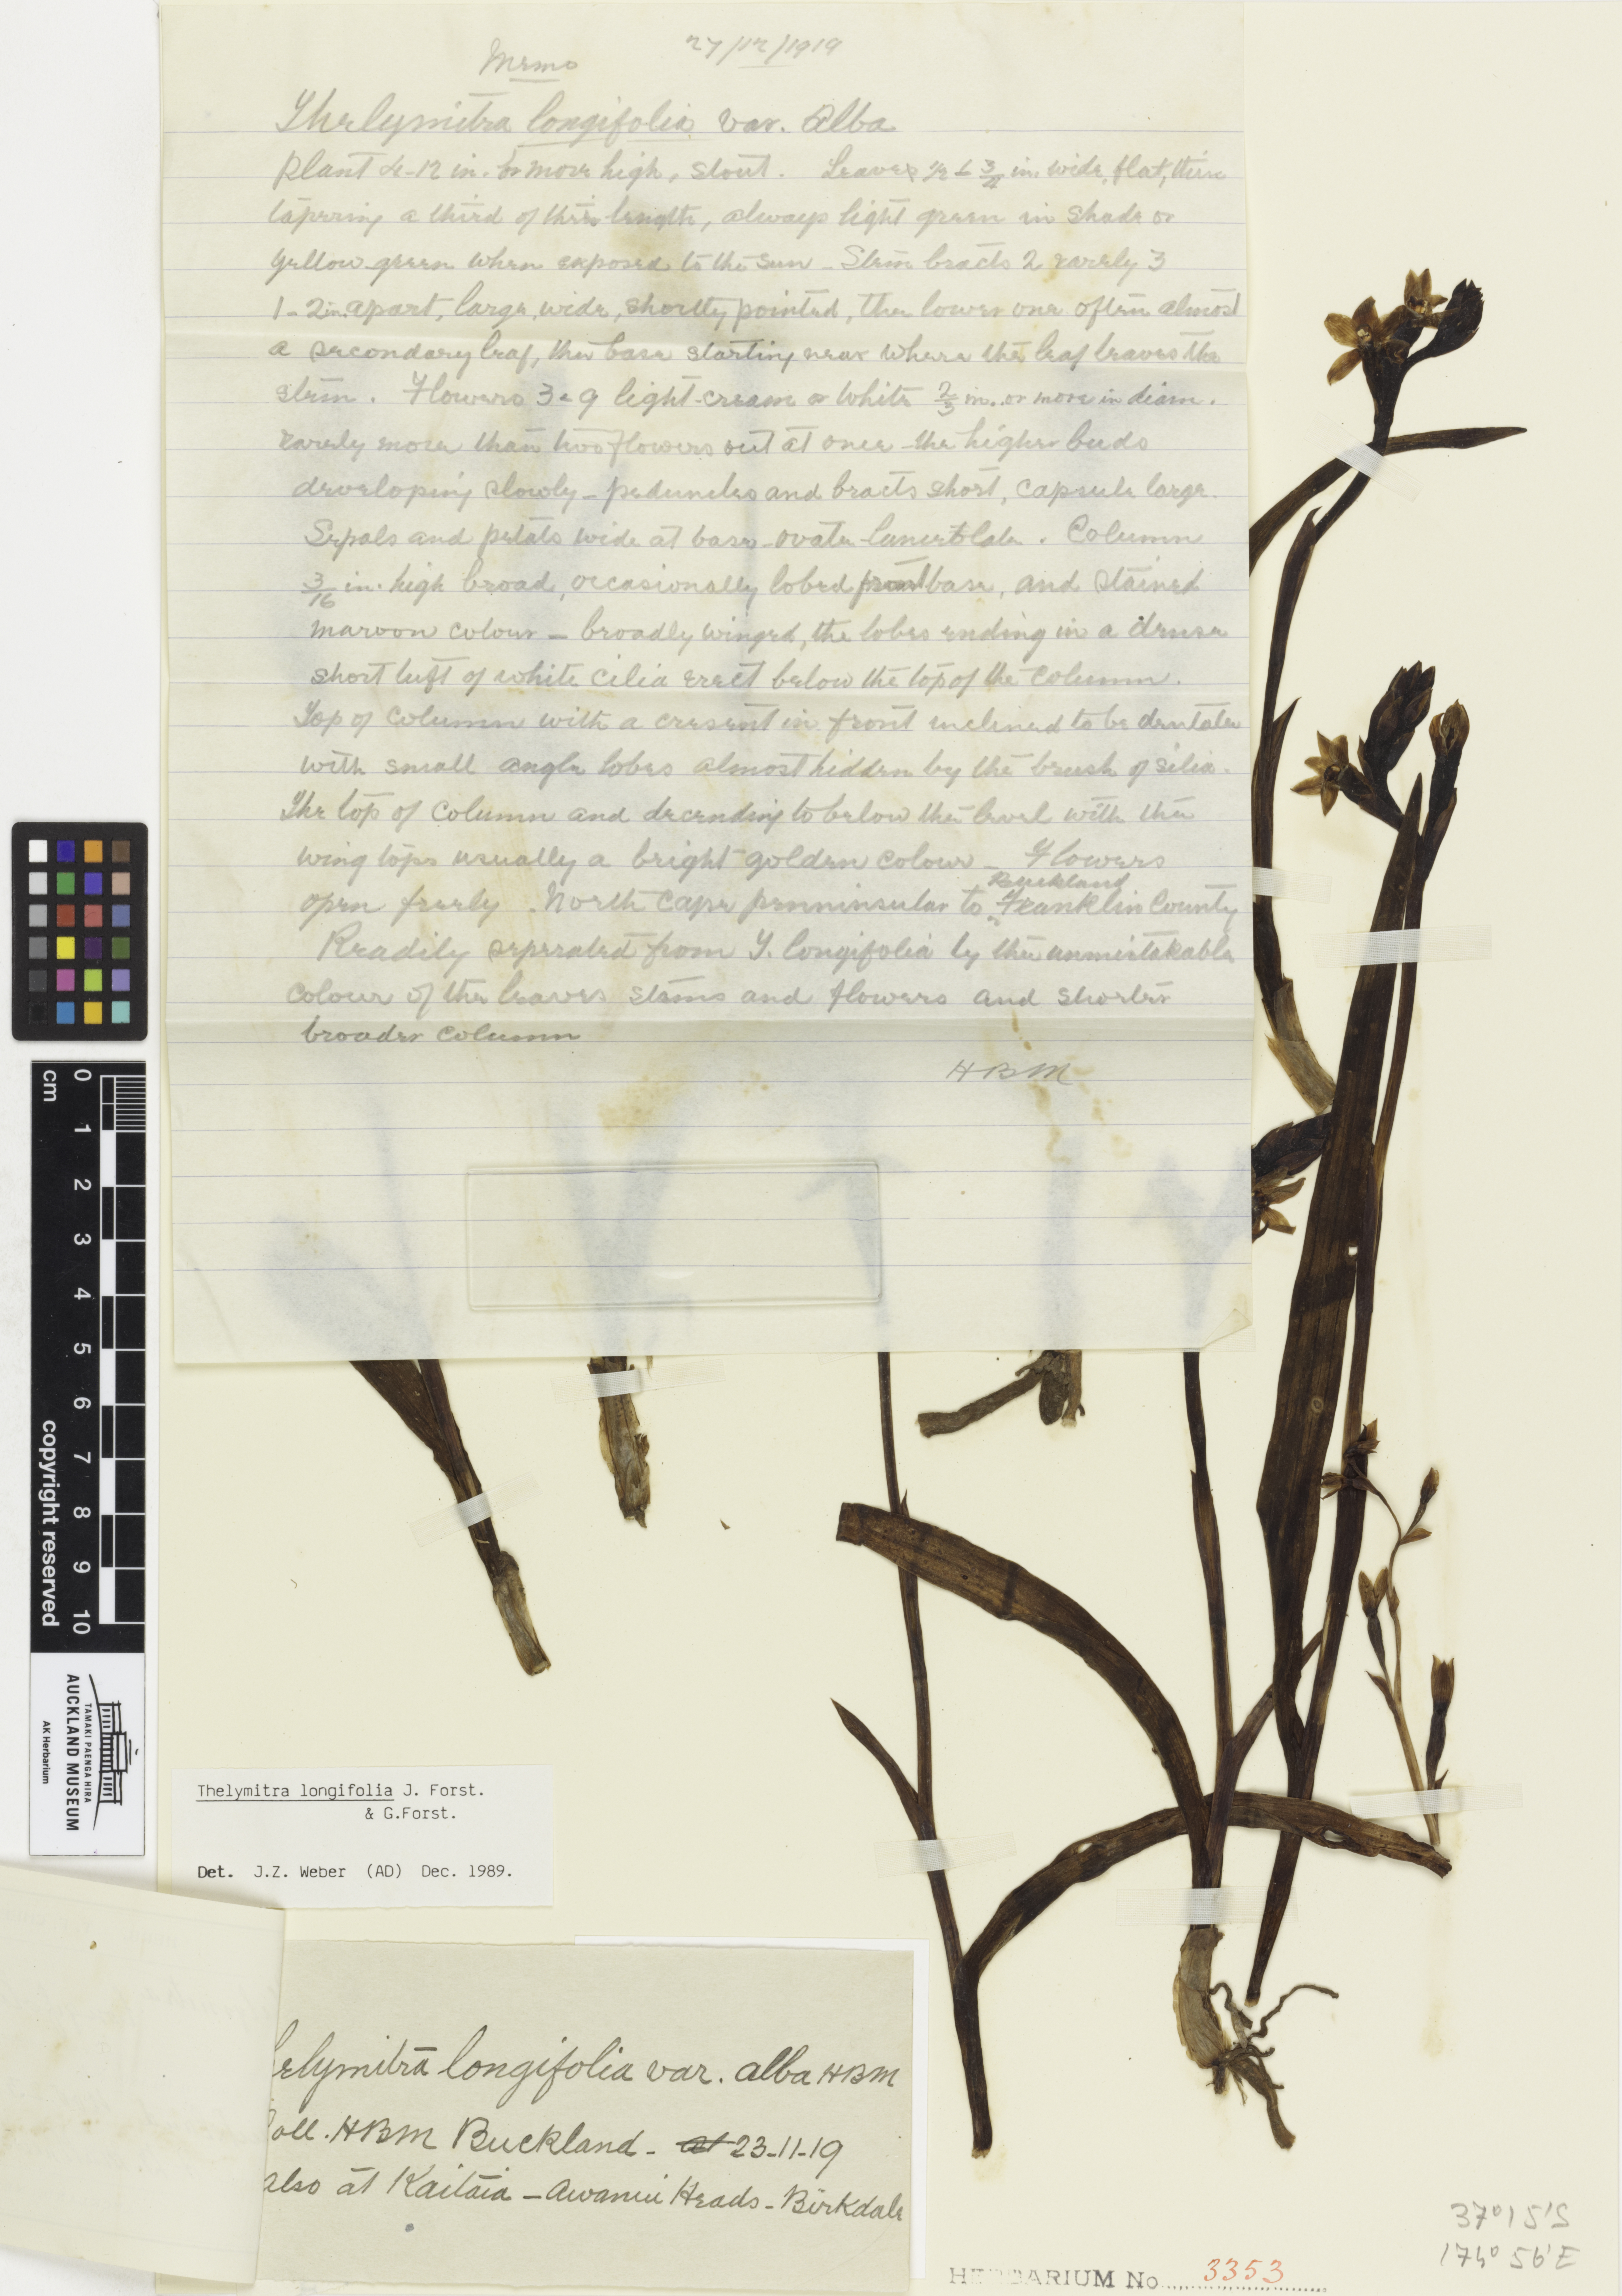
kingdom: Plantae
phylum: Tracheophyta
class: Liliopsida
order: Asparagales
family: Orchidaceae
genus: Thelymitra
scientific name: Thelymitra longifolia
